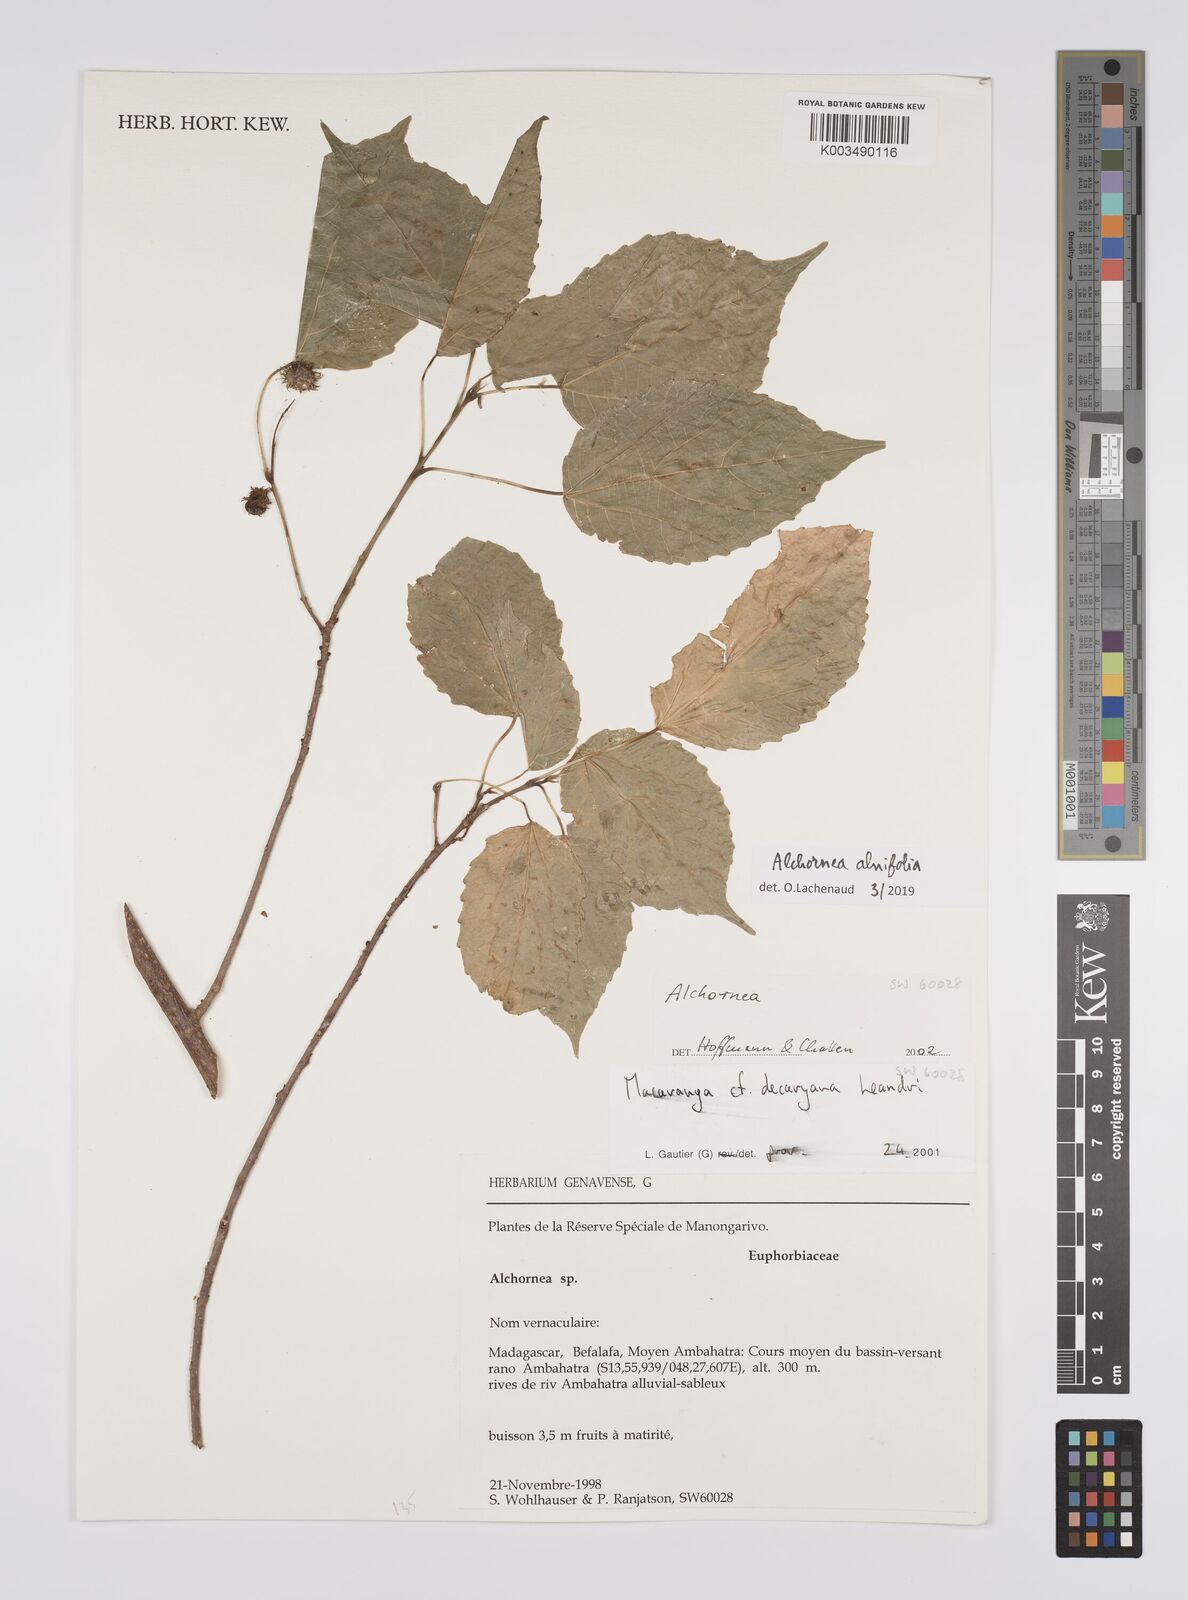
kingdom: Plantae
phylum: Tracheophyta
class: Magnoliopsida
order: Malpighiales
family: Euphorbiaceae
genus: Alchornea
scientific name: Alchornea alnifolia
